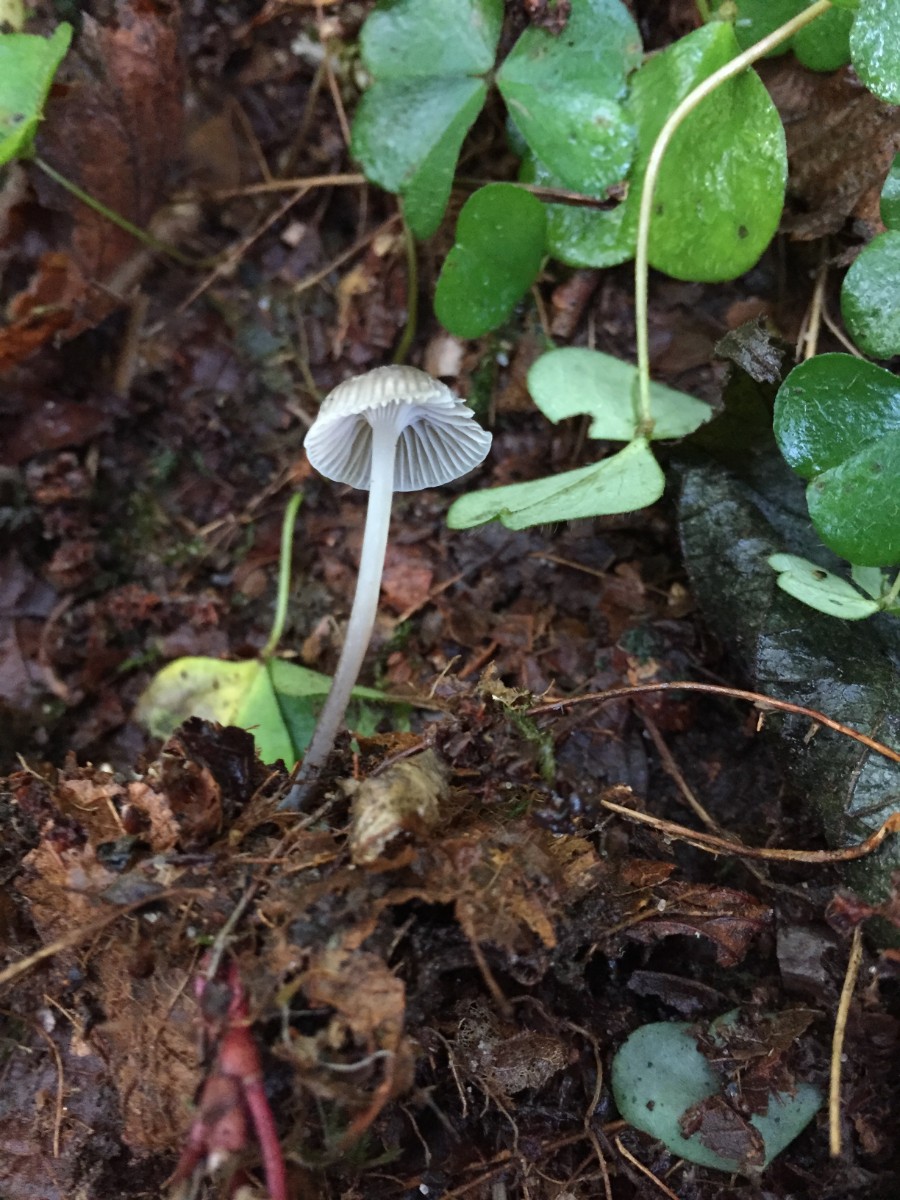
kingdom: Fungi
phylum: Basidiomycota
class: Agaricomycetes
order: Agaricales
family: Mycenaceae
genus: Mycena
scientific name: Mycena cinerella
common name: mel-huesvamp
